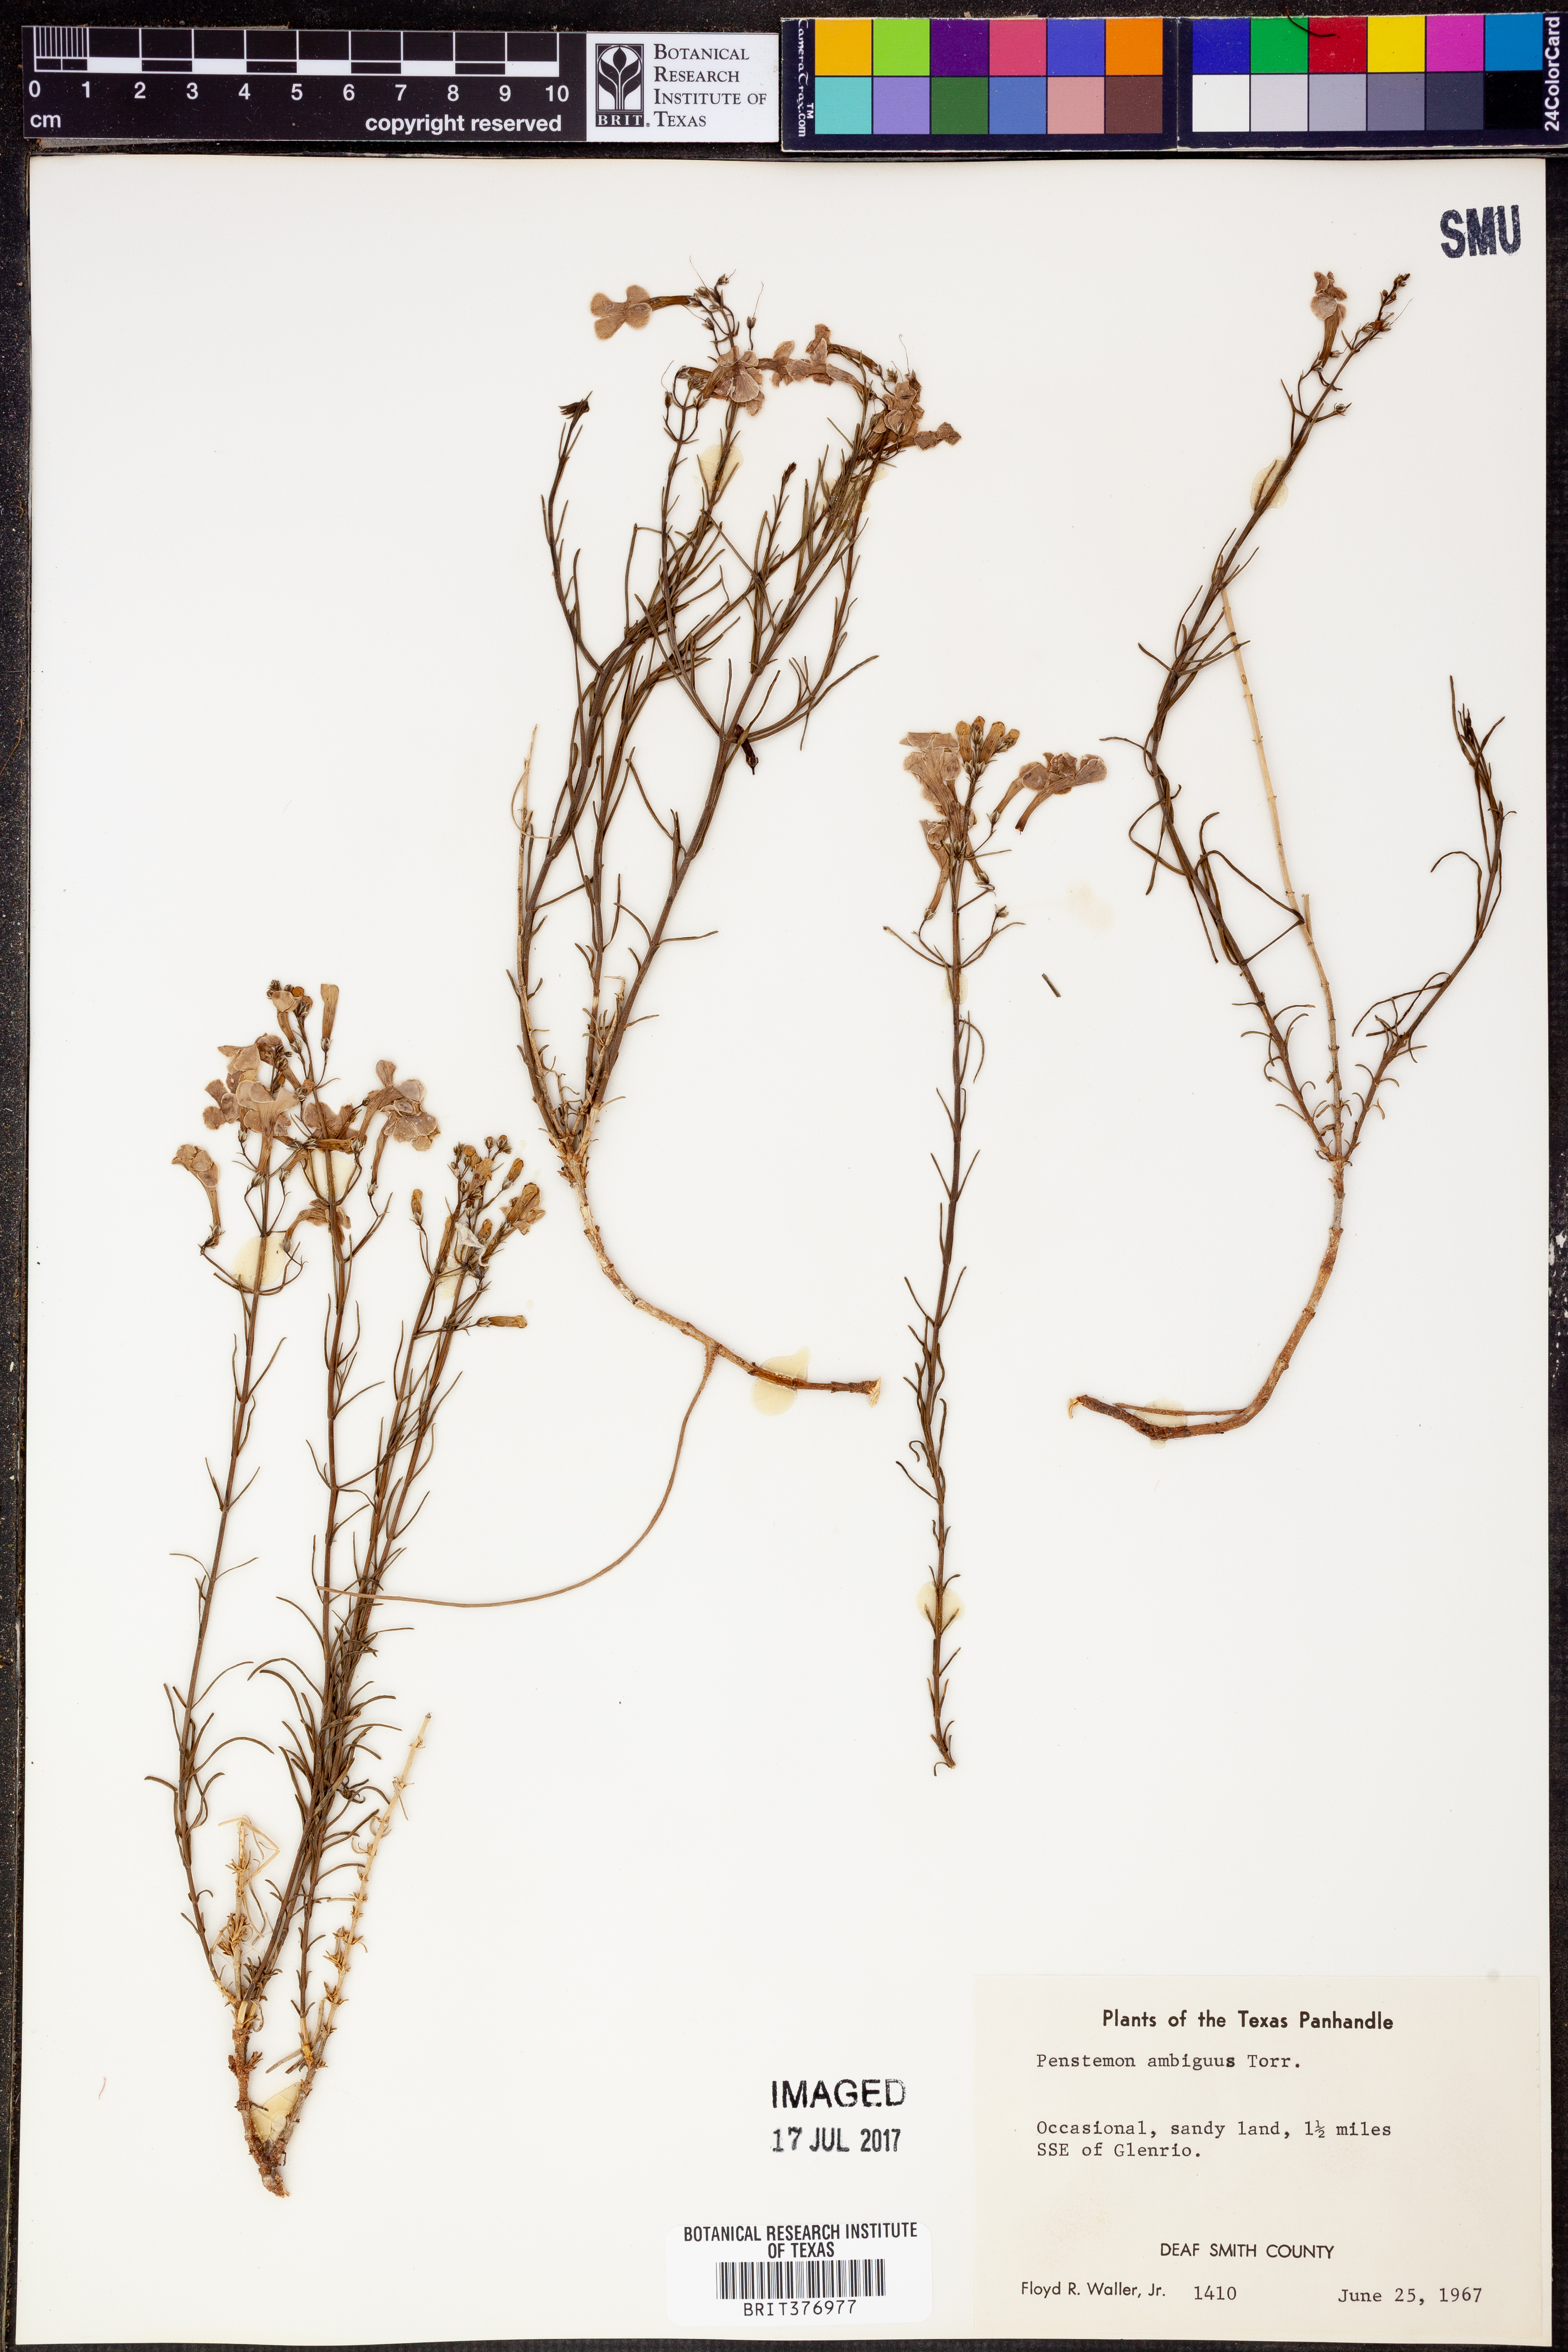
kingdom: Plantae
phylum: Tracheophyta
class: Magnoliopsida
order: Lamiales
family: Plantaginaceae
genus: Penstemon
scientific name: Penstemon ambiguus
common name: Bush penstemon
